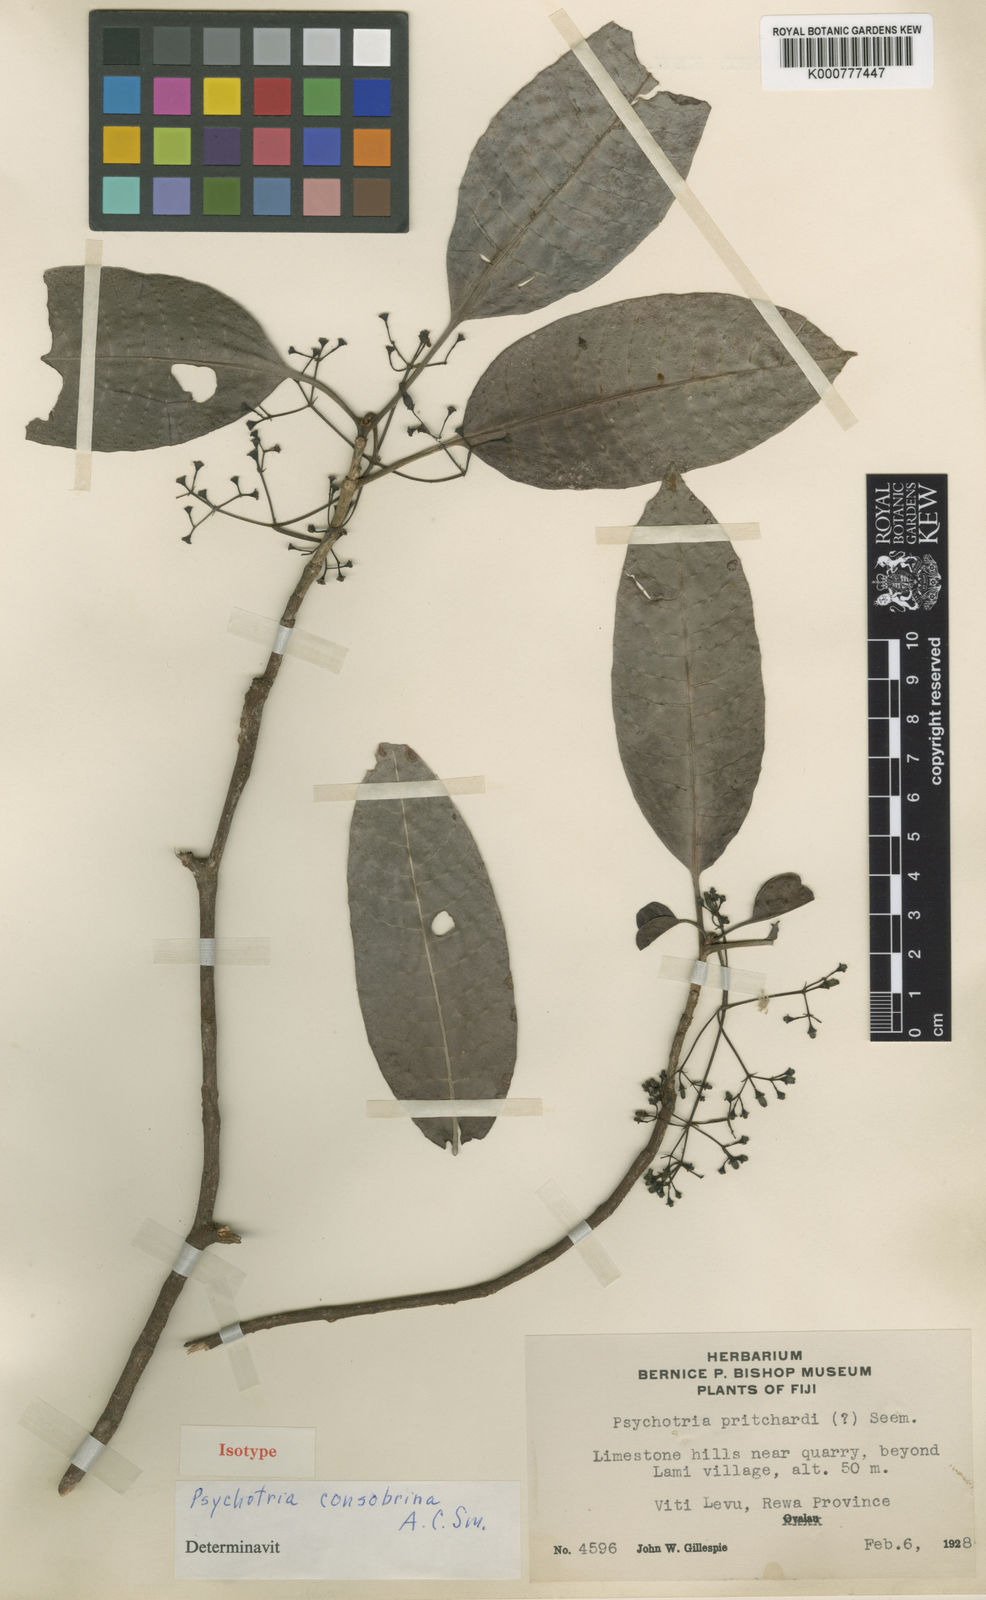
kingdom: Plantae
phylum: Tracheophyta
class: Magnoliopsida
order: Gentianales
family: Rubiaceae
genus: Psychotria
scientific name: Psychotria furcans
